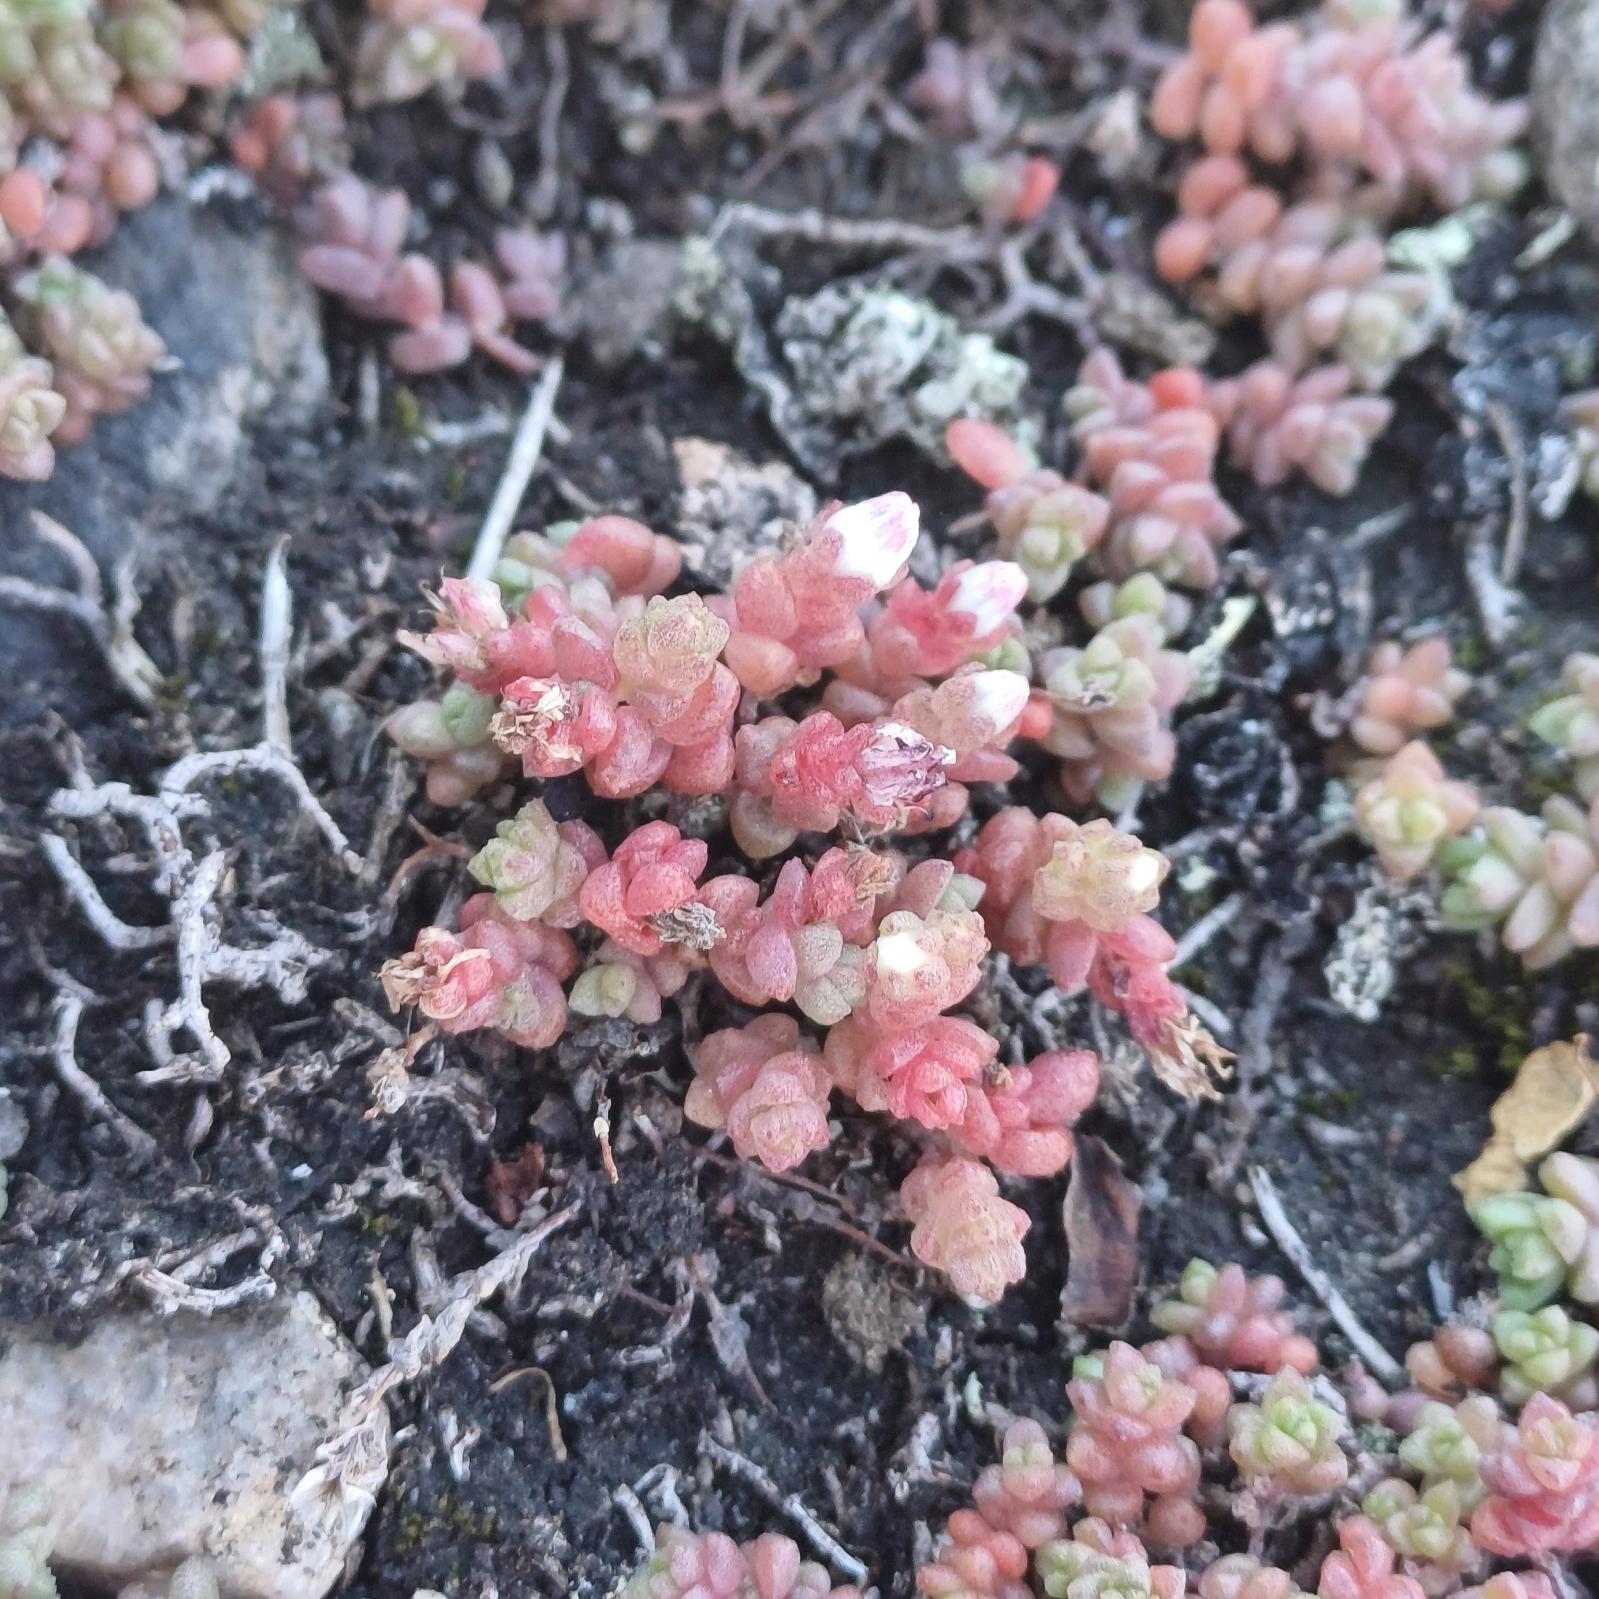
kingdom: Plantae
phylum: Tracheophyta
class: Magnoliopsida
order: Saxifragales
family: Crassulaceae
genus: Sedum
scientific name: Sedum anglicum
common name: Engelsk stenurt
